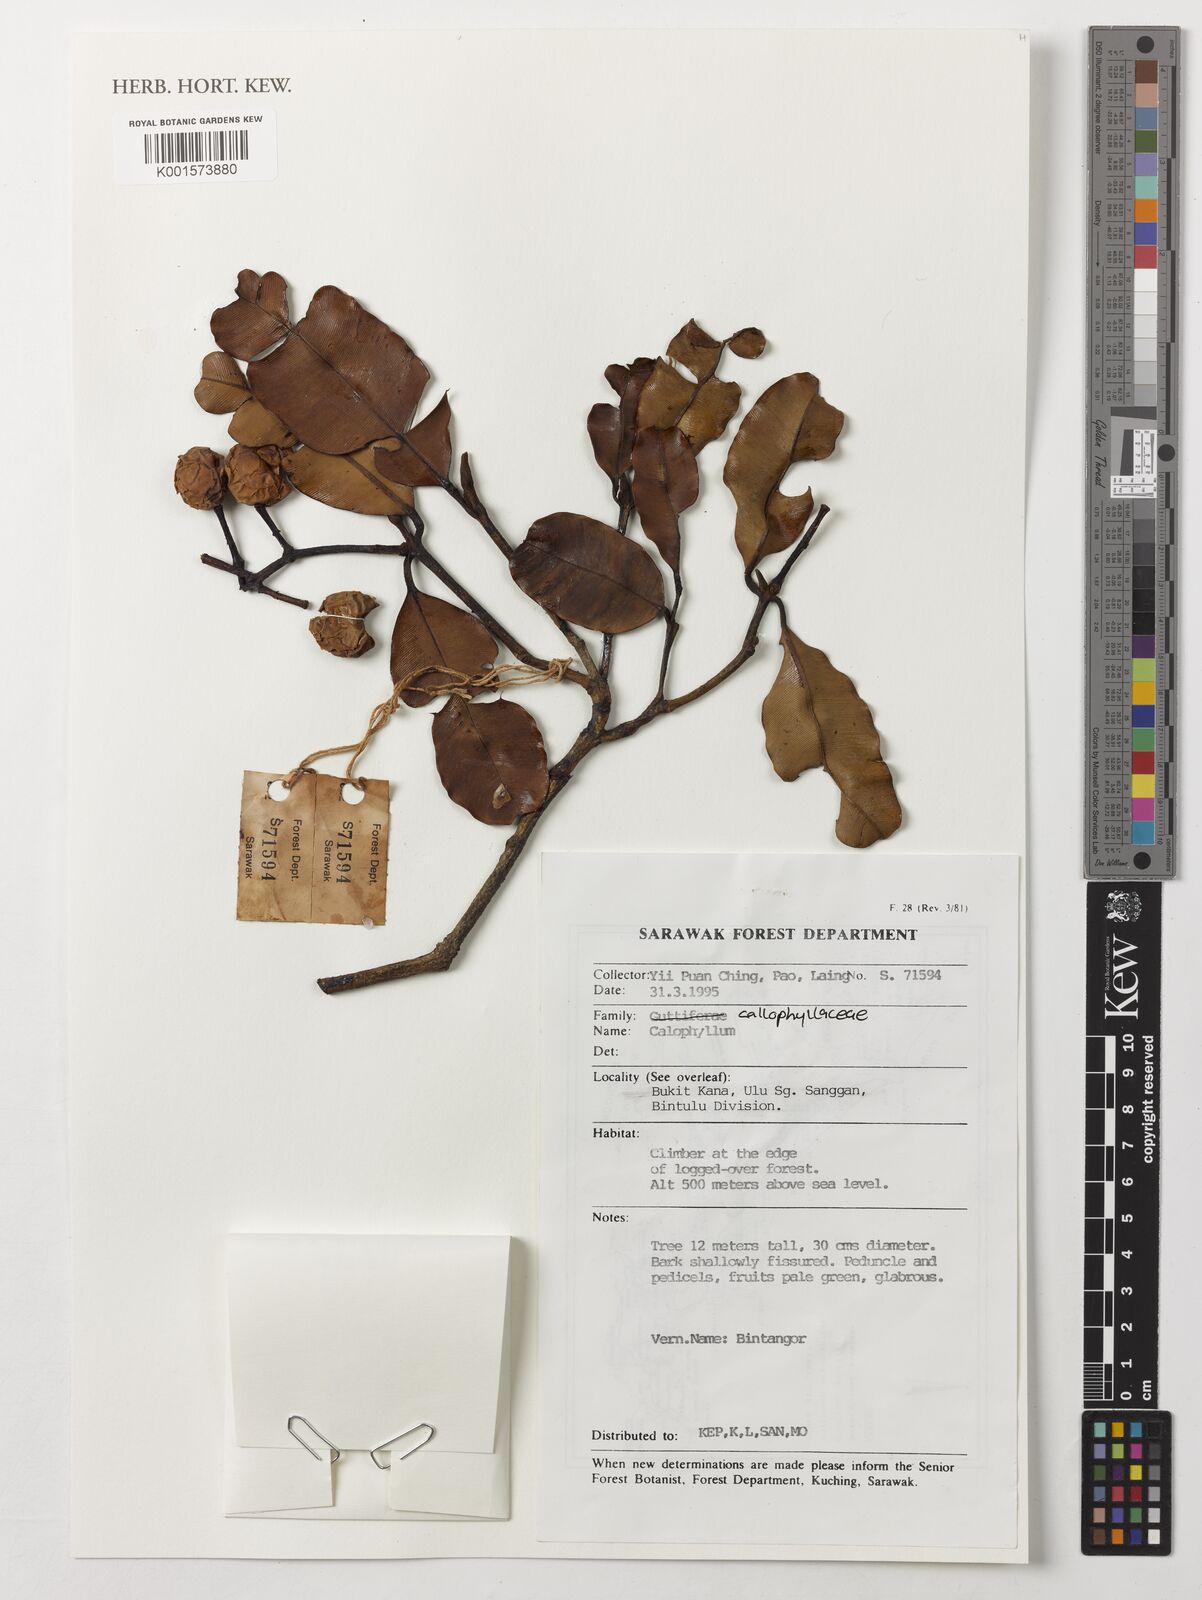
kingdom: Plantae
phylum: Tracheophyta
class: Magnoliopsida
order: Malpighiales
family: Calophyllaceae
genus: Calophyllum
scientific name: Calophyllum
